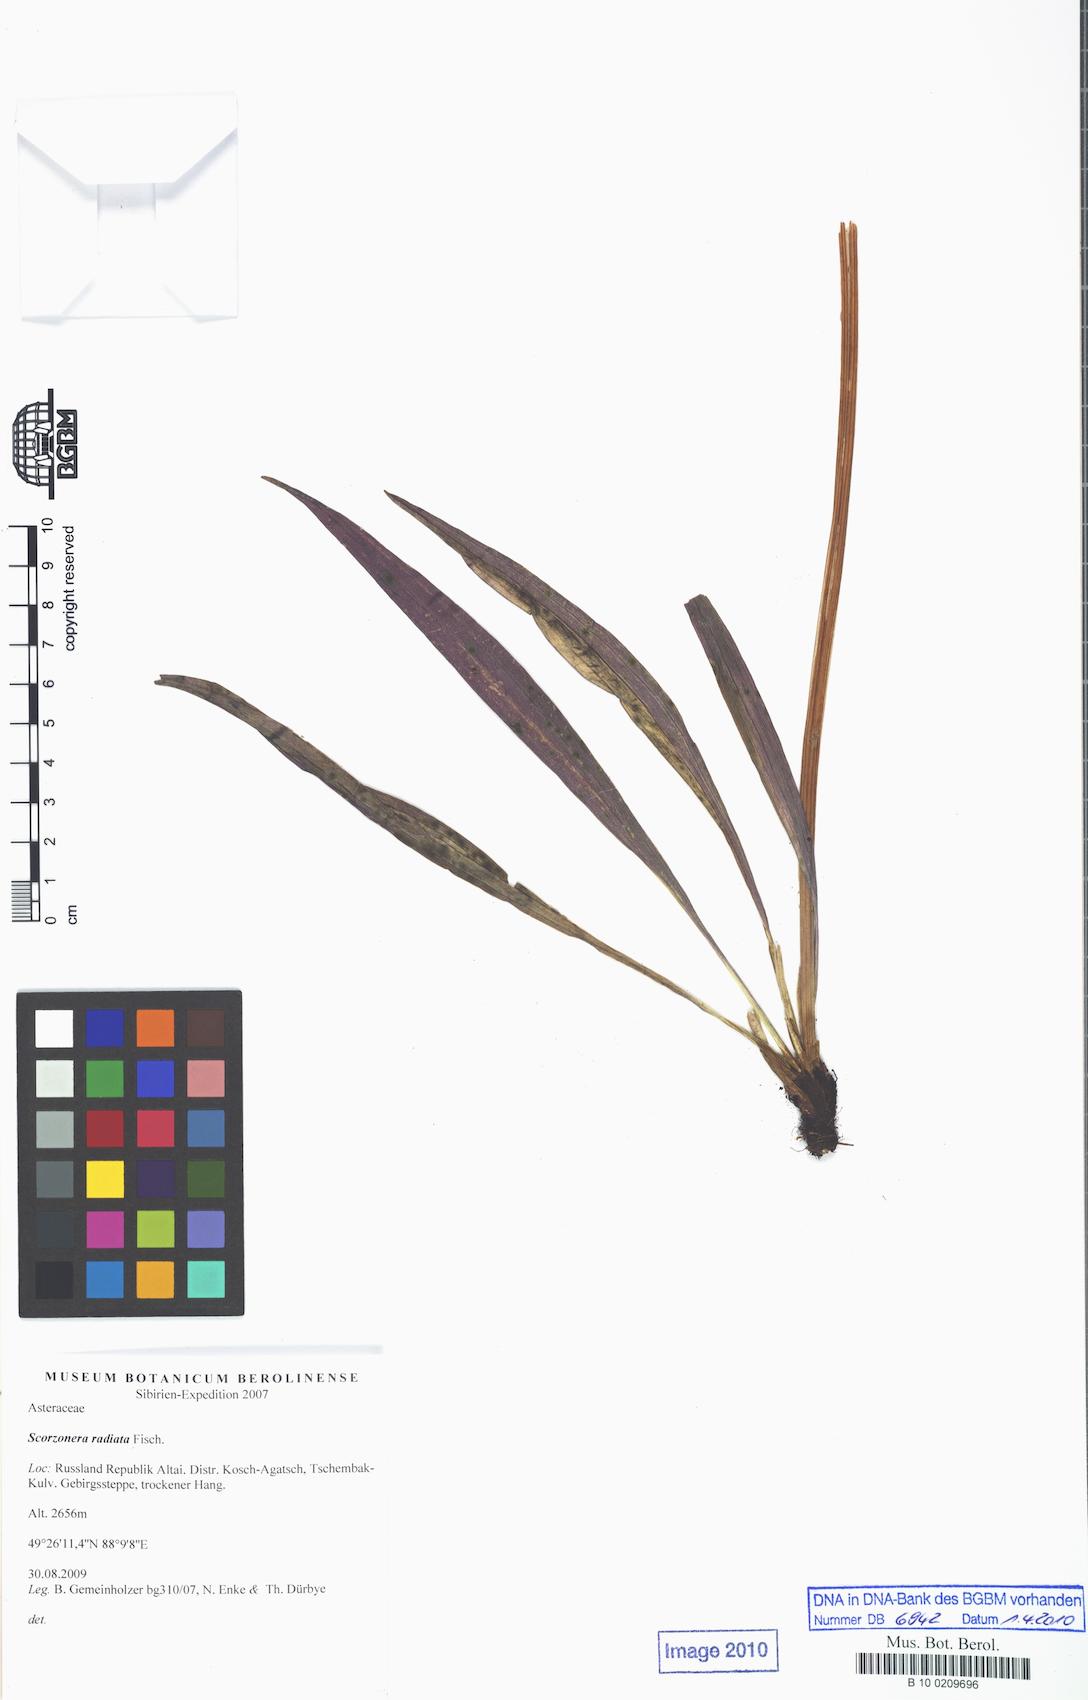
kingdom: Plantae
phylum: Tracheophyta
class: Magnoliopsida
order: Asterales
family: Asteraceae
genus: Scorzonera
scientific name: Scorzonera radiata
